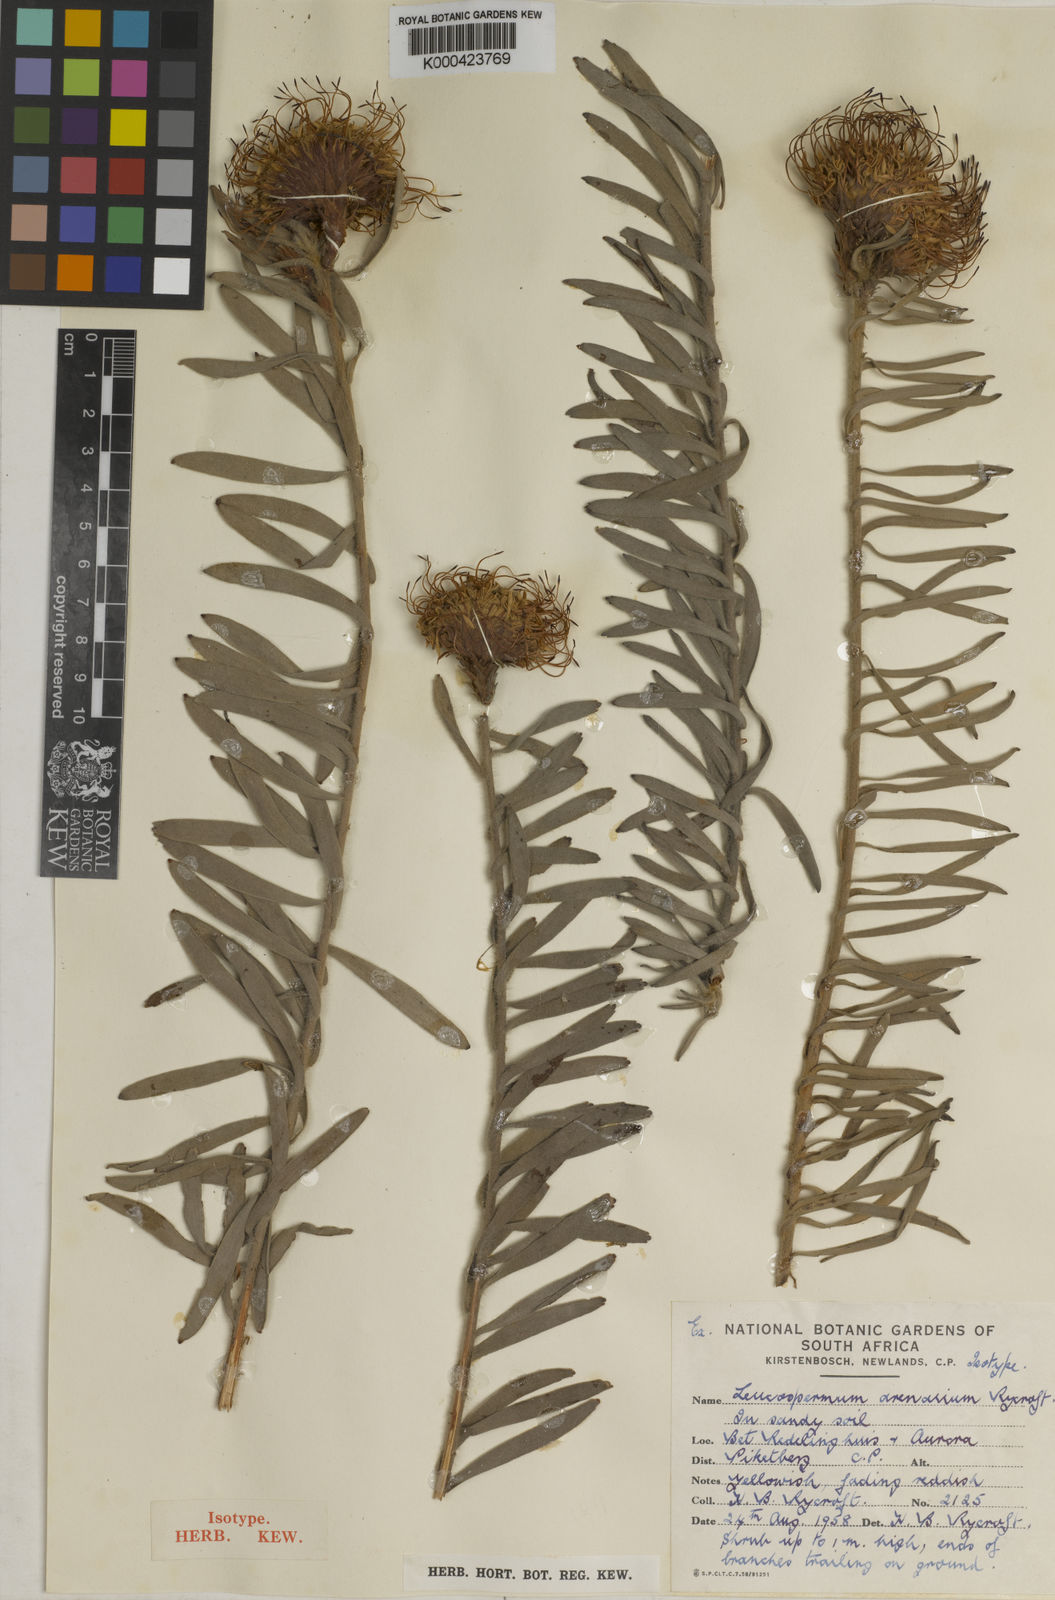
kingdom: Plantae
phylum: Tracheophyta
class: Magnoliopsida
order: Proteales
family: Proteaceae
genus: Leucospermum
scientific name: Leucospermum arenarium
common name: Redelinghuys pincushion
